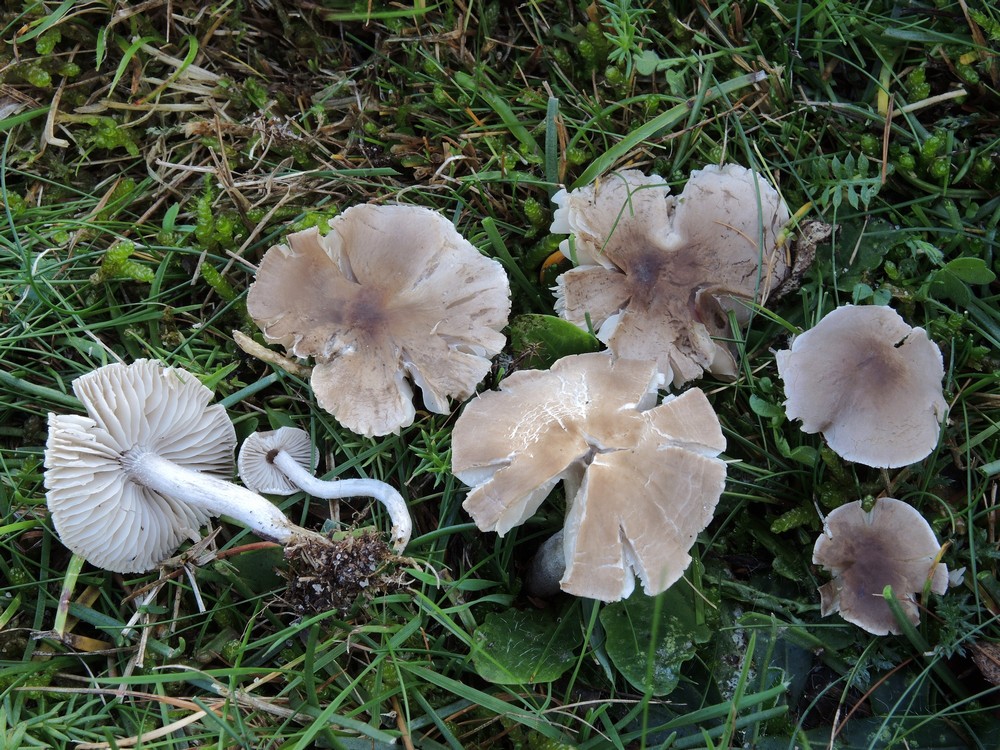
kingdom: Fungi
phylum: Basidiomycota
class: Agaricomycetes
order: Agaricales
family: Tricholomataceae
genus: Dermoloma
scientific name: Dermoloma cuneifolium
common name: eng-nonnehat
